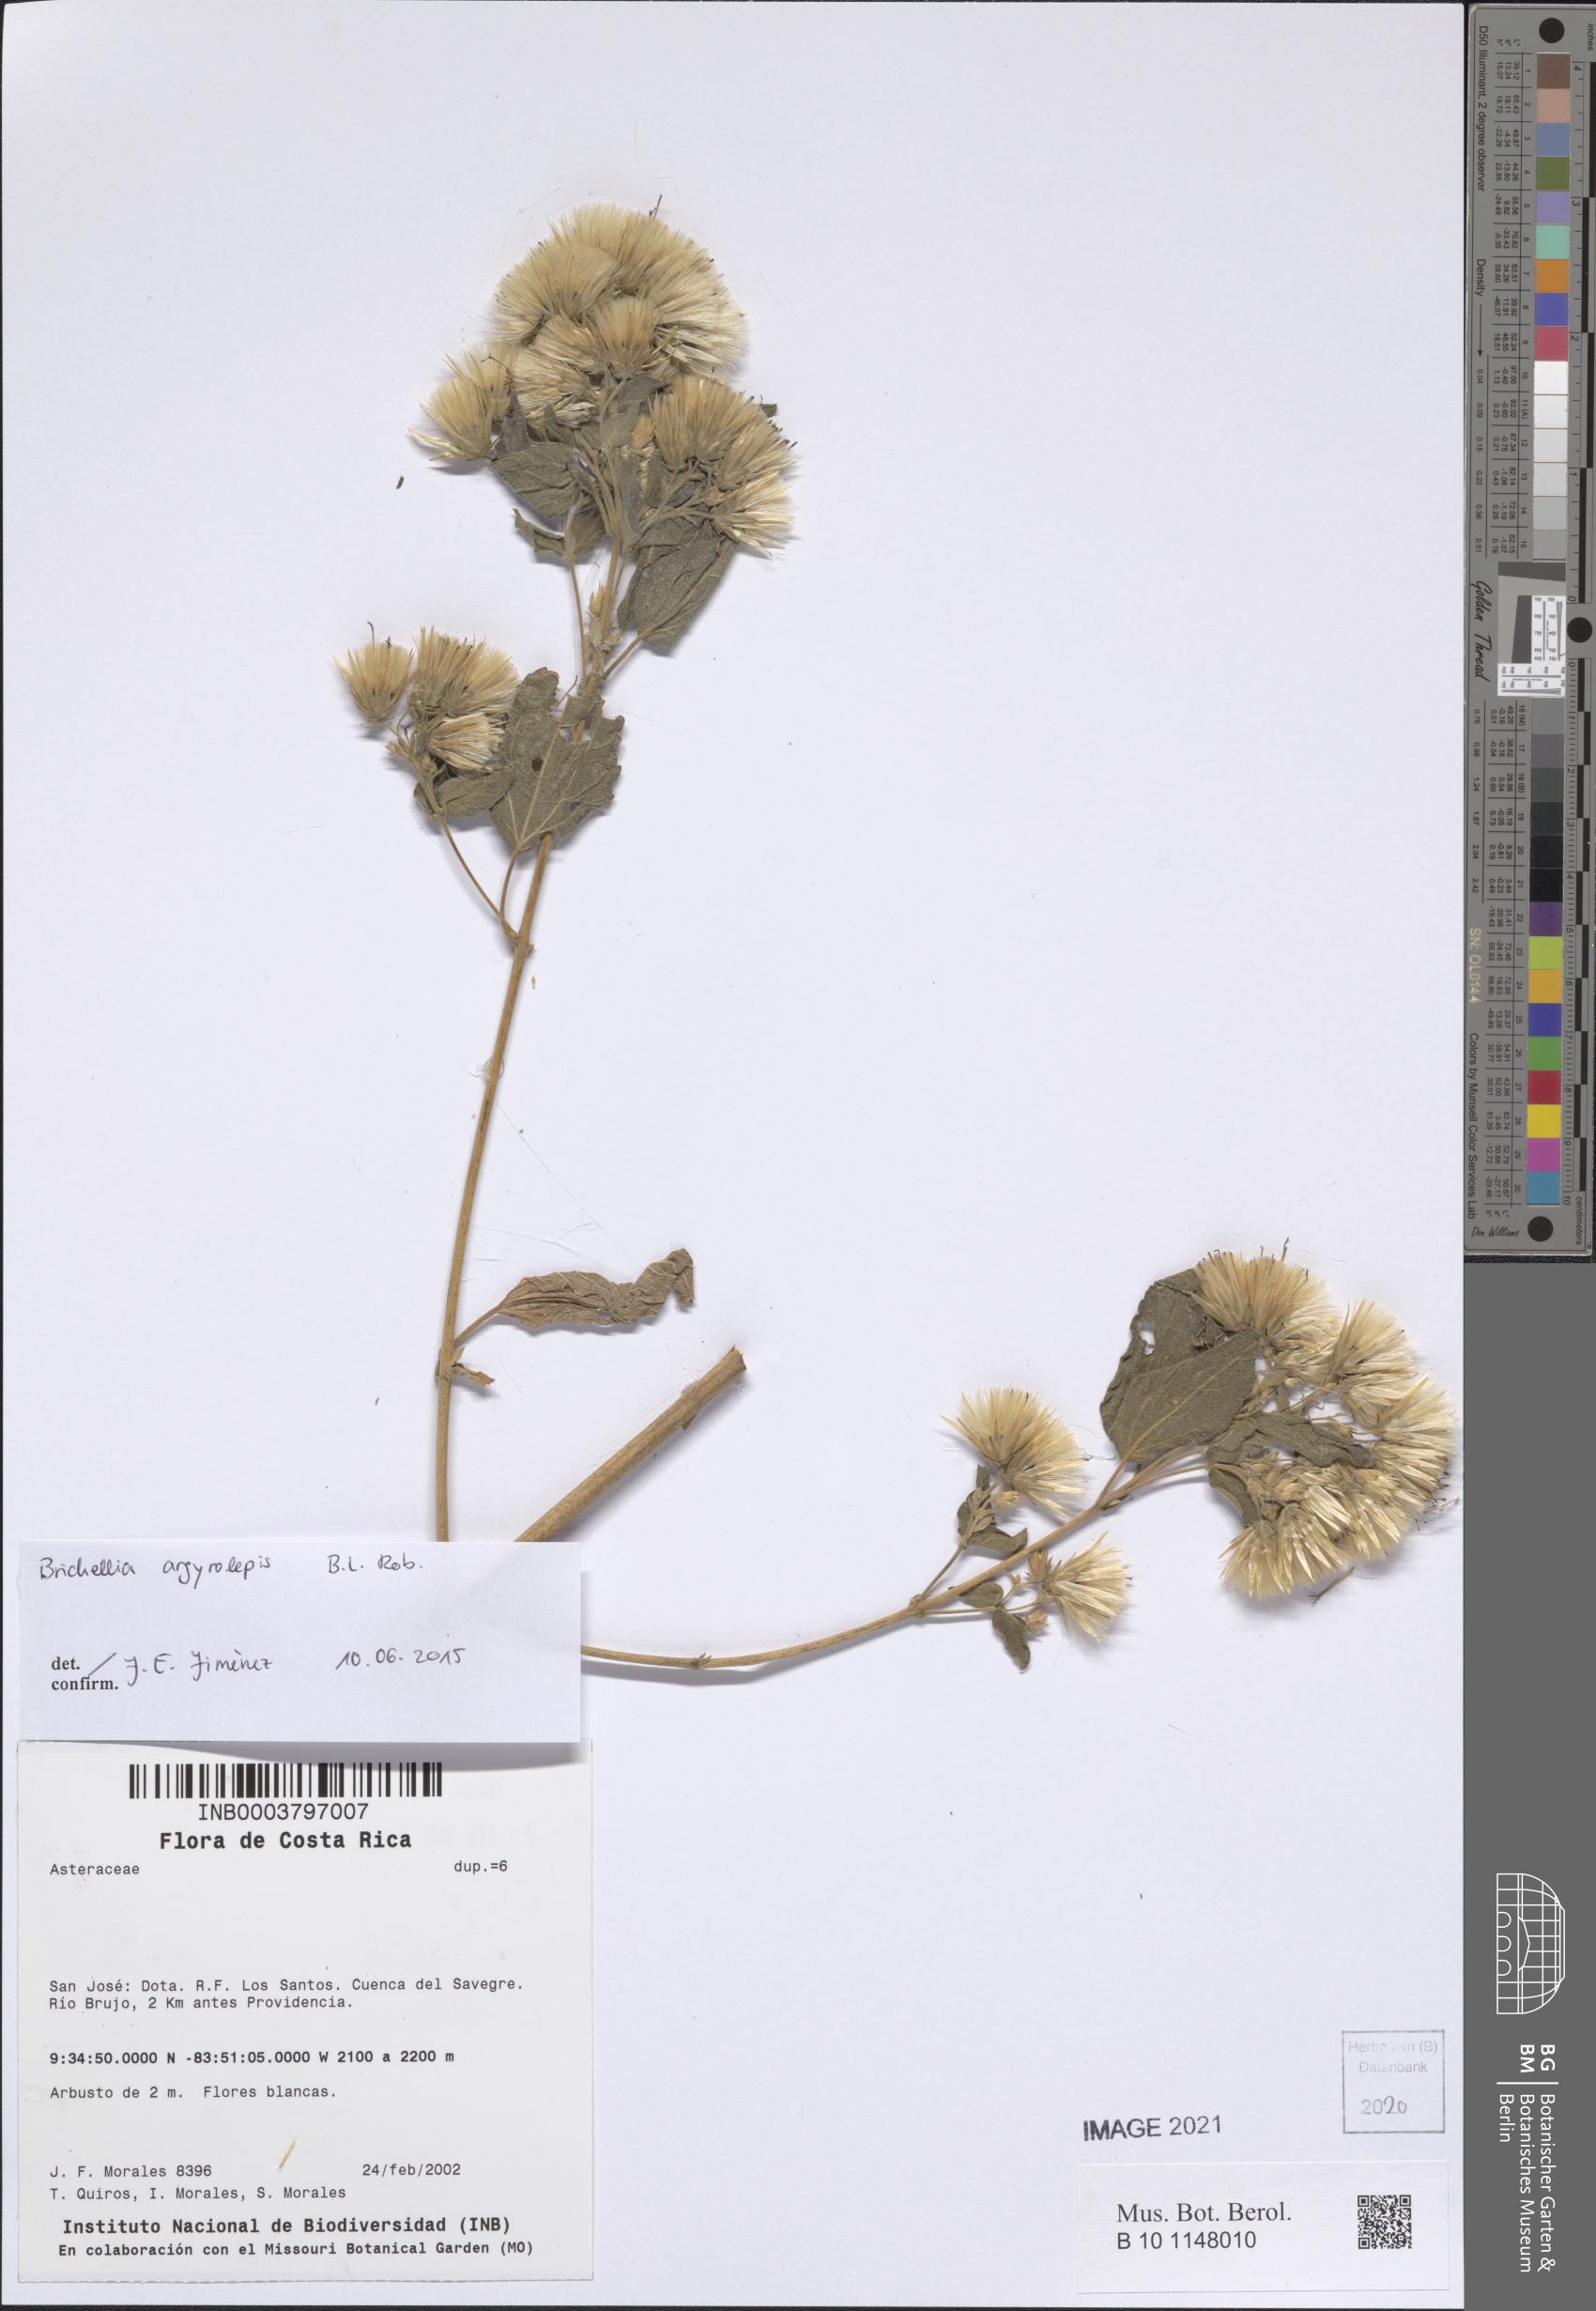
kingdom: Plantae
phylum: Tracheophyta
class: Magnoliopsida
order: Asterales
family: Asteraceae
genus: Brickellia
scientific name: Brickellia argyrolepis
